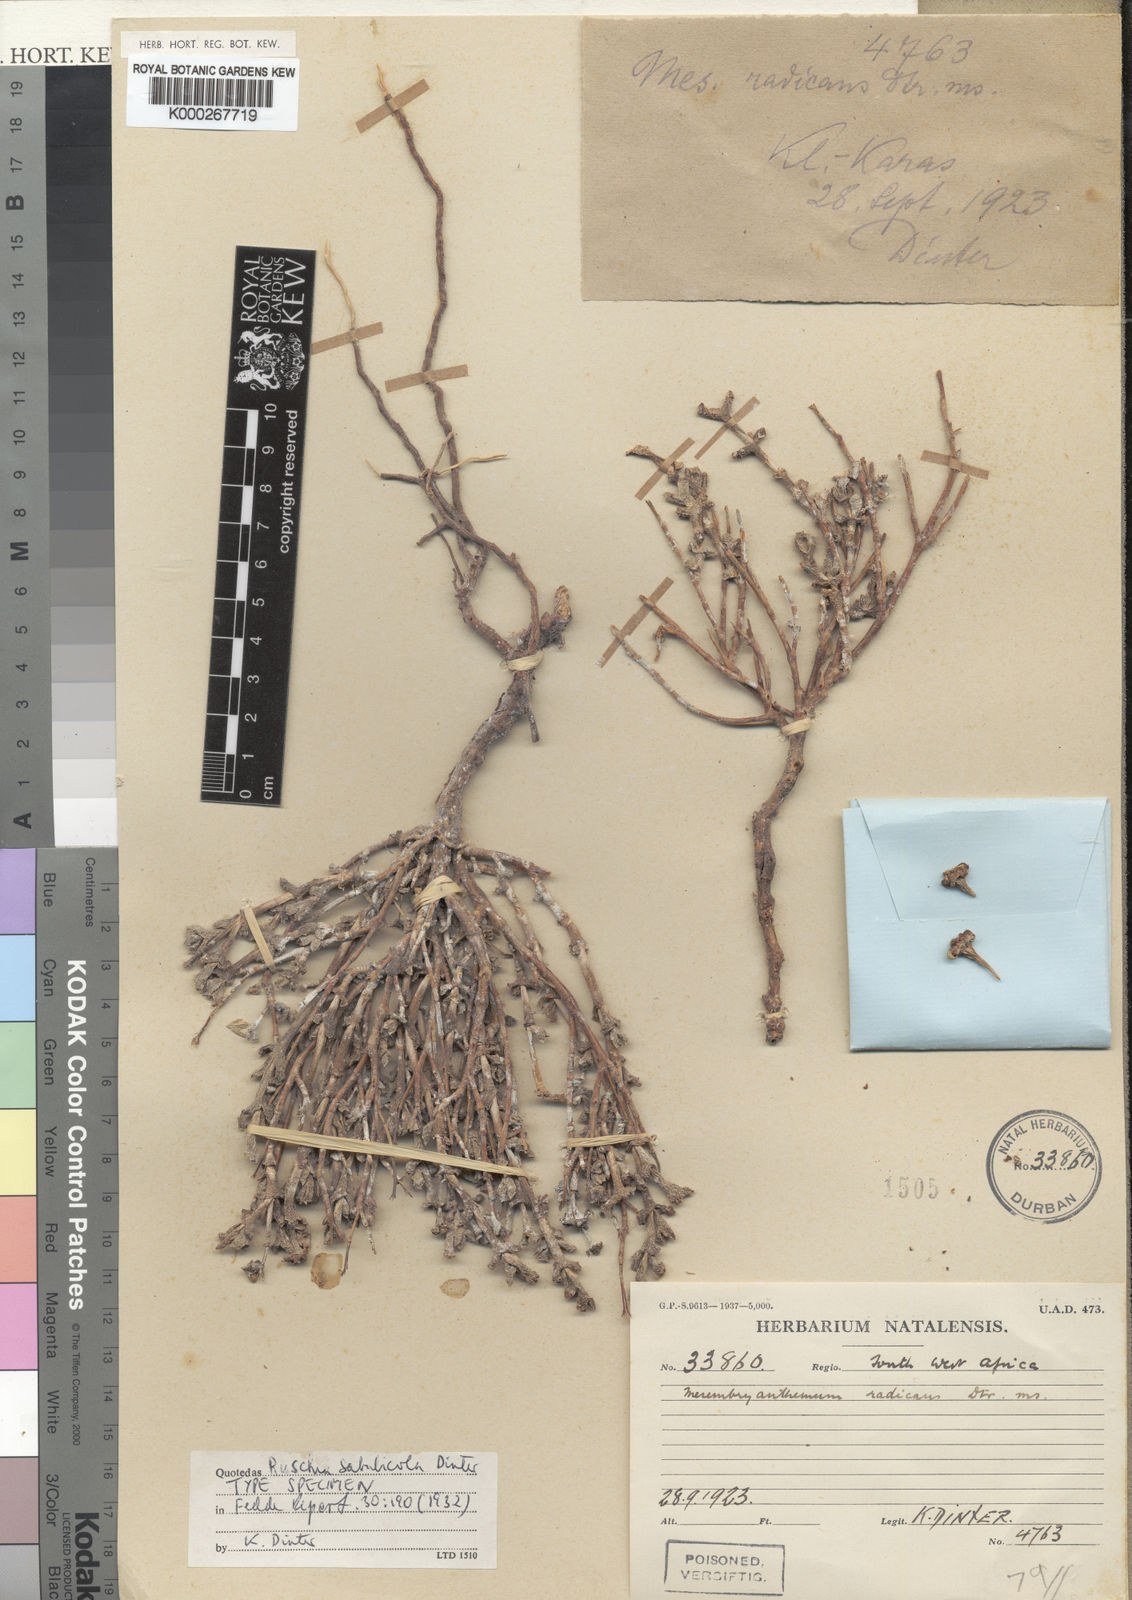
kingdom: Plantae
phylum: Tracheophyta
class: Magnoliopsida
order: Caryophyllales
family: Aizoaceae
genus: Ruschia
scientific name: Ruschia sabulicola
